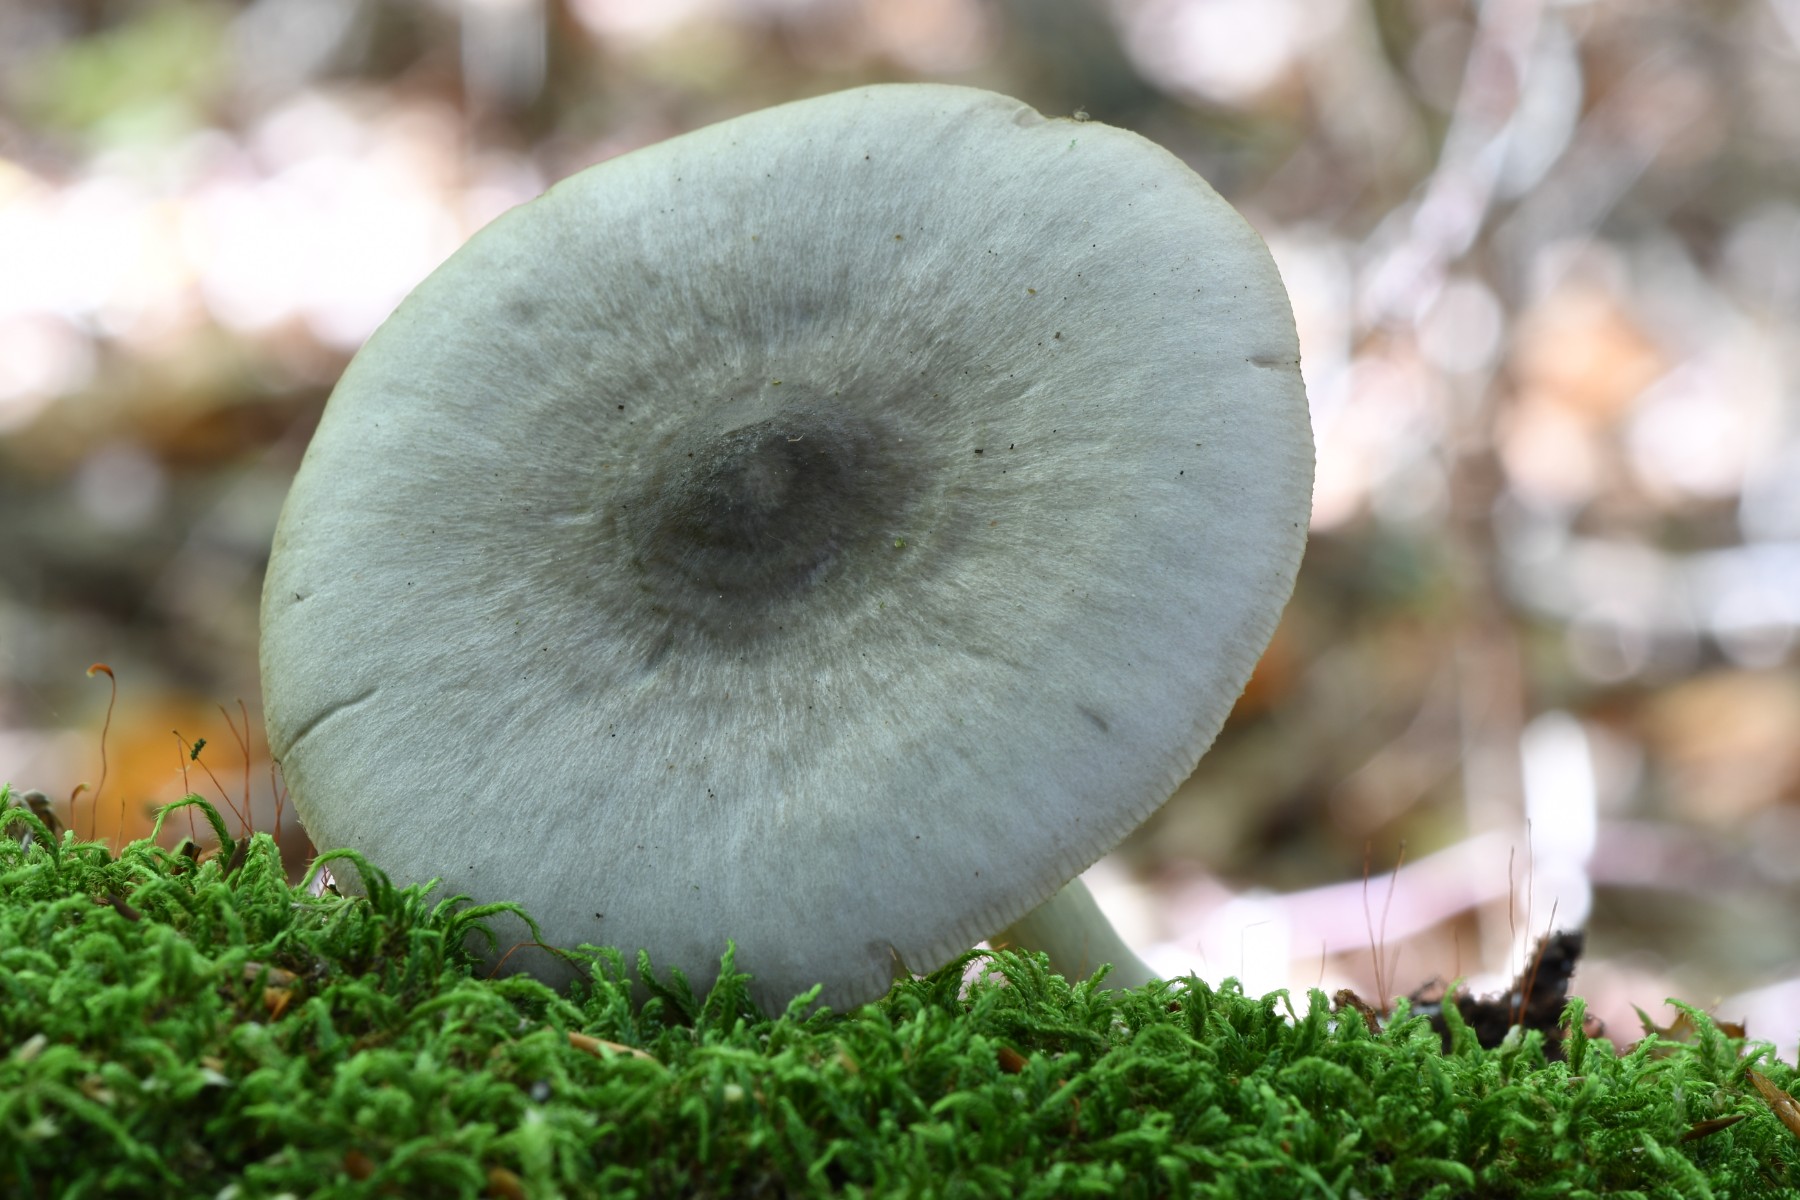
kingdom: Fungi
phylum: Basidiomycota
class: Agaricomycetes
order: Agaricales
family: Pluteaceae
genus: Pluteus
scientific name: Pluteus salicinus
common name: stiv skærmhat
